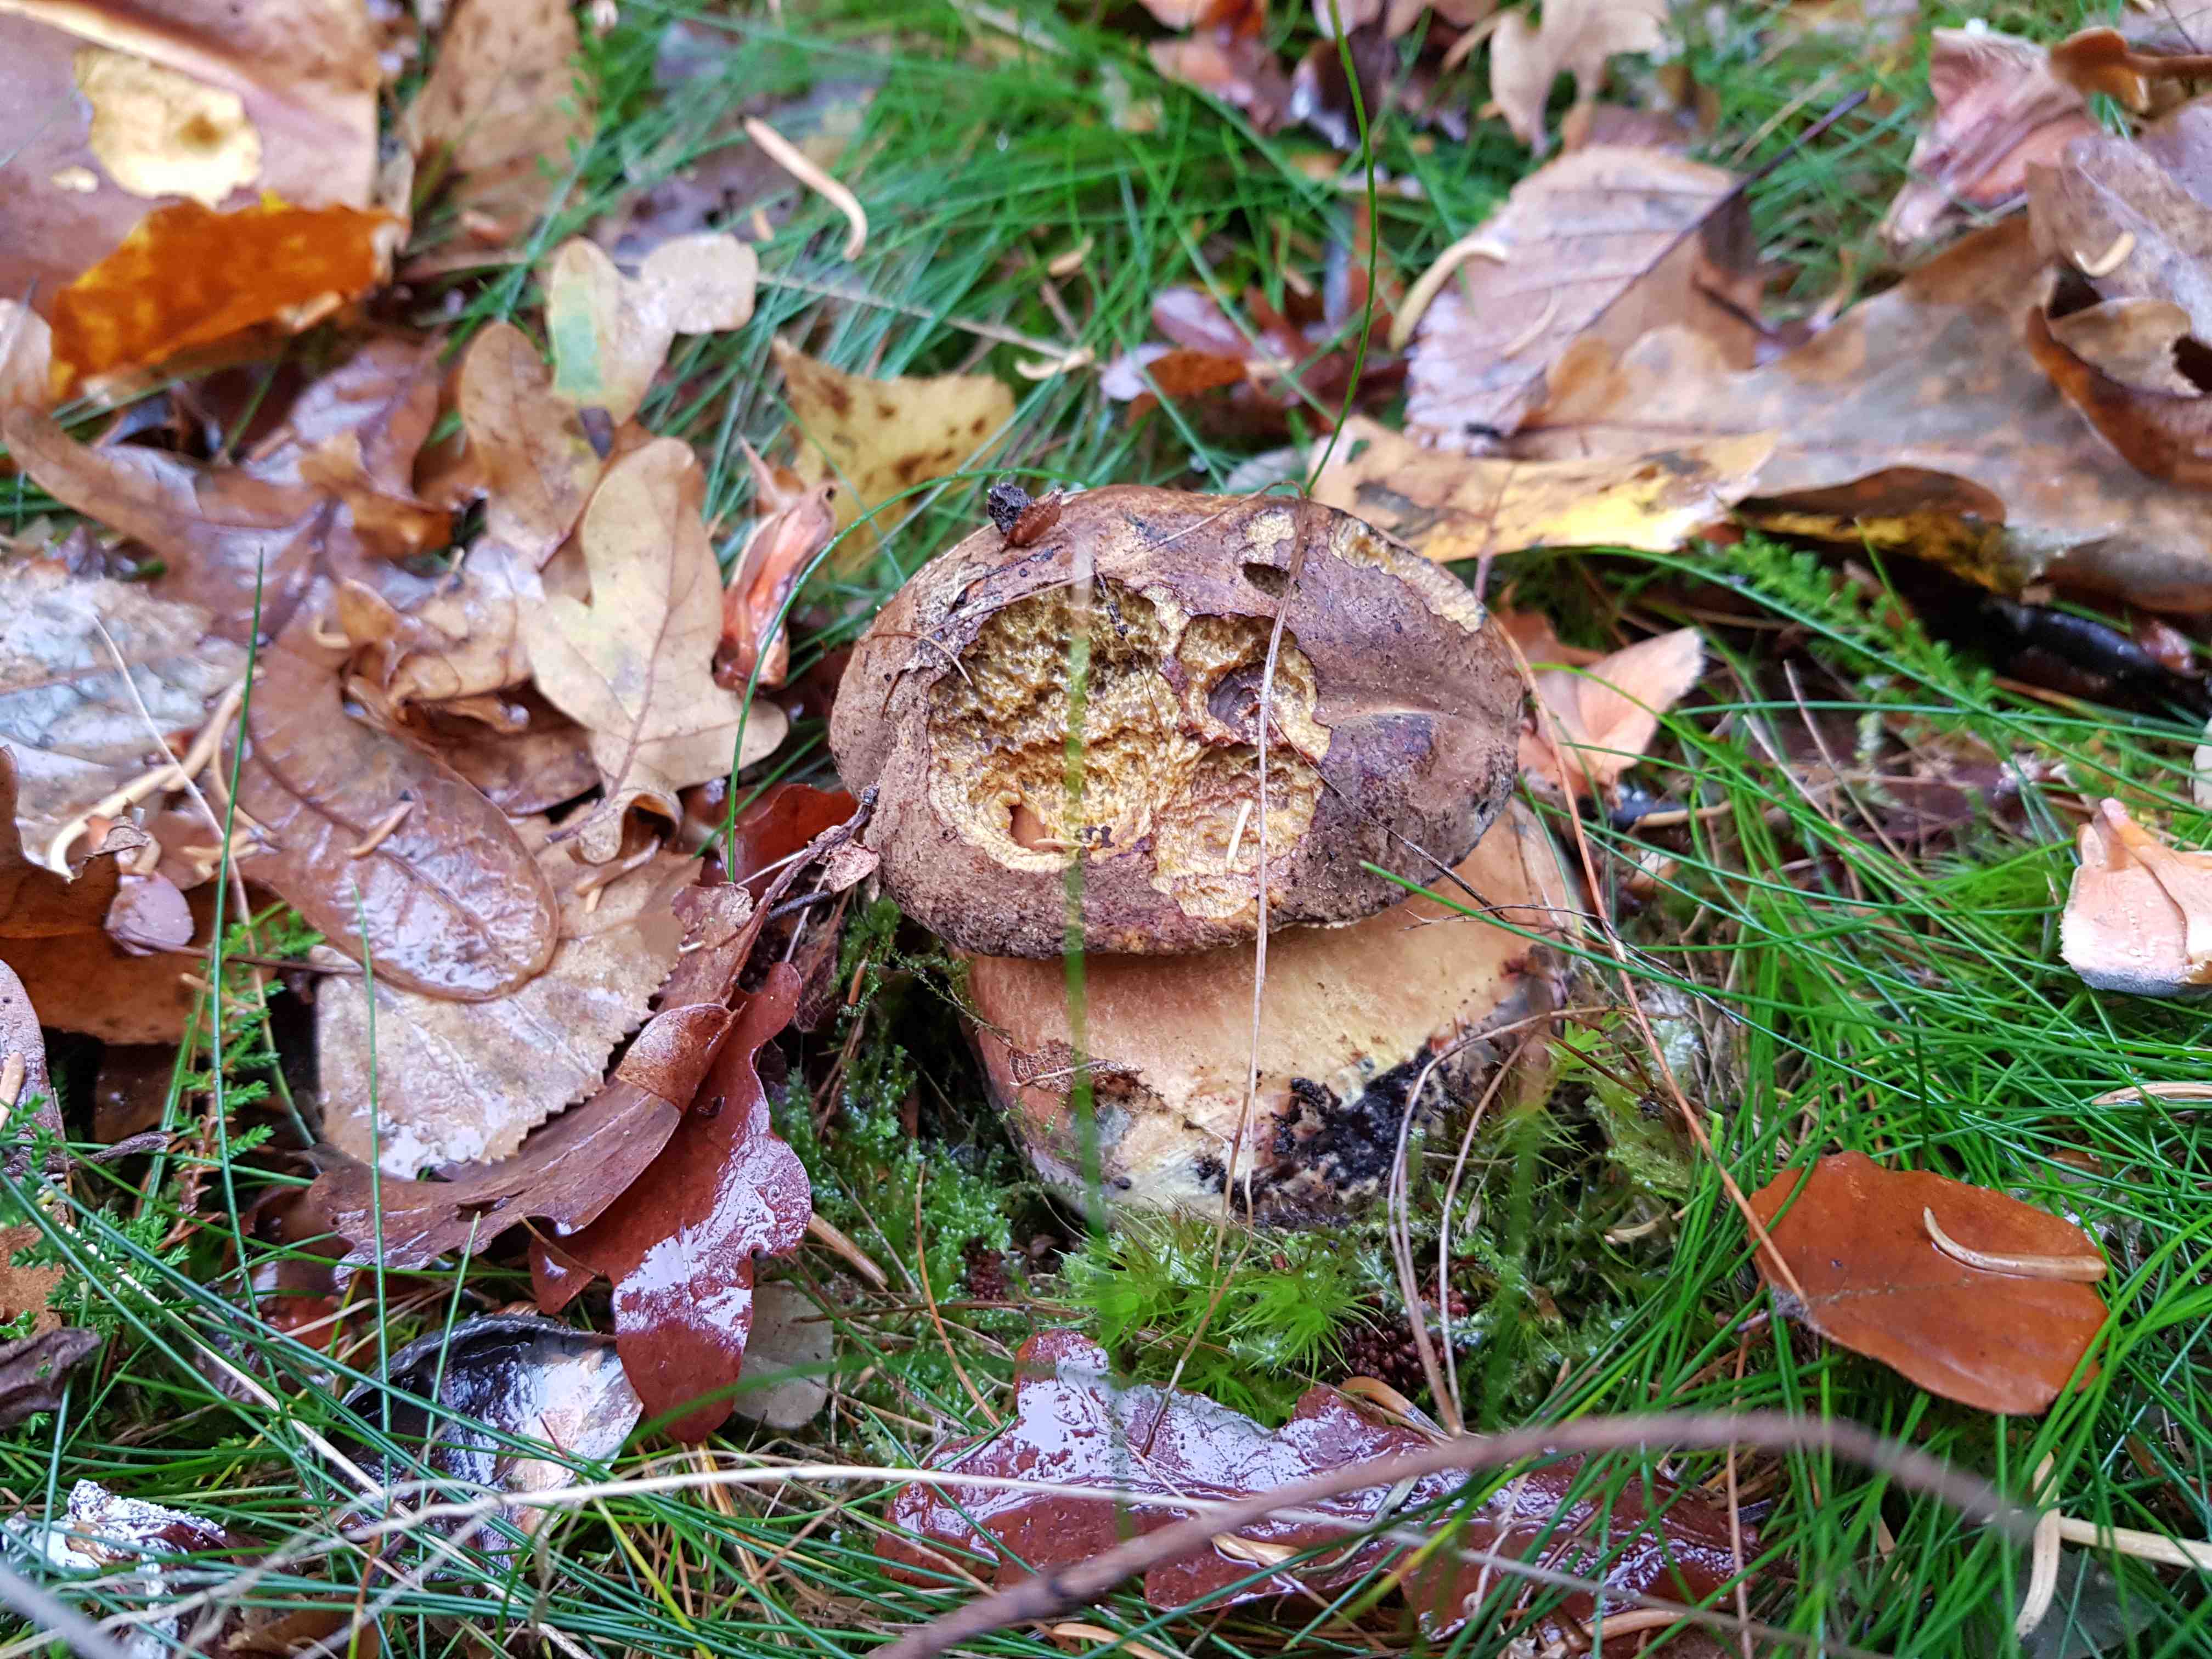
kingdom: Fungi
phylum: Basidiomycota
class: Agaricomycetes
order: Boletales
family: Boletaceae
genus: Neoboletus
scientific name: Neoboletus erythropus
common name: punktstokket indigorørhat
